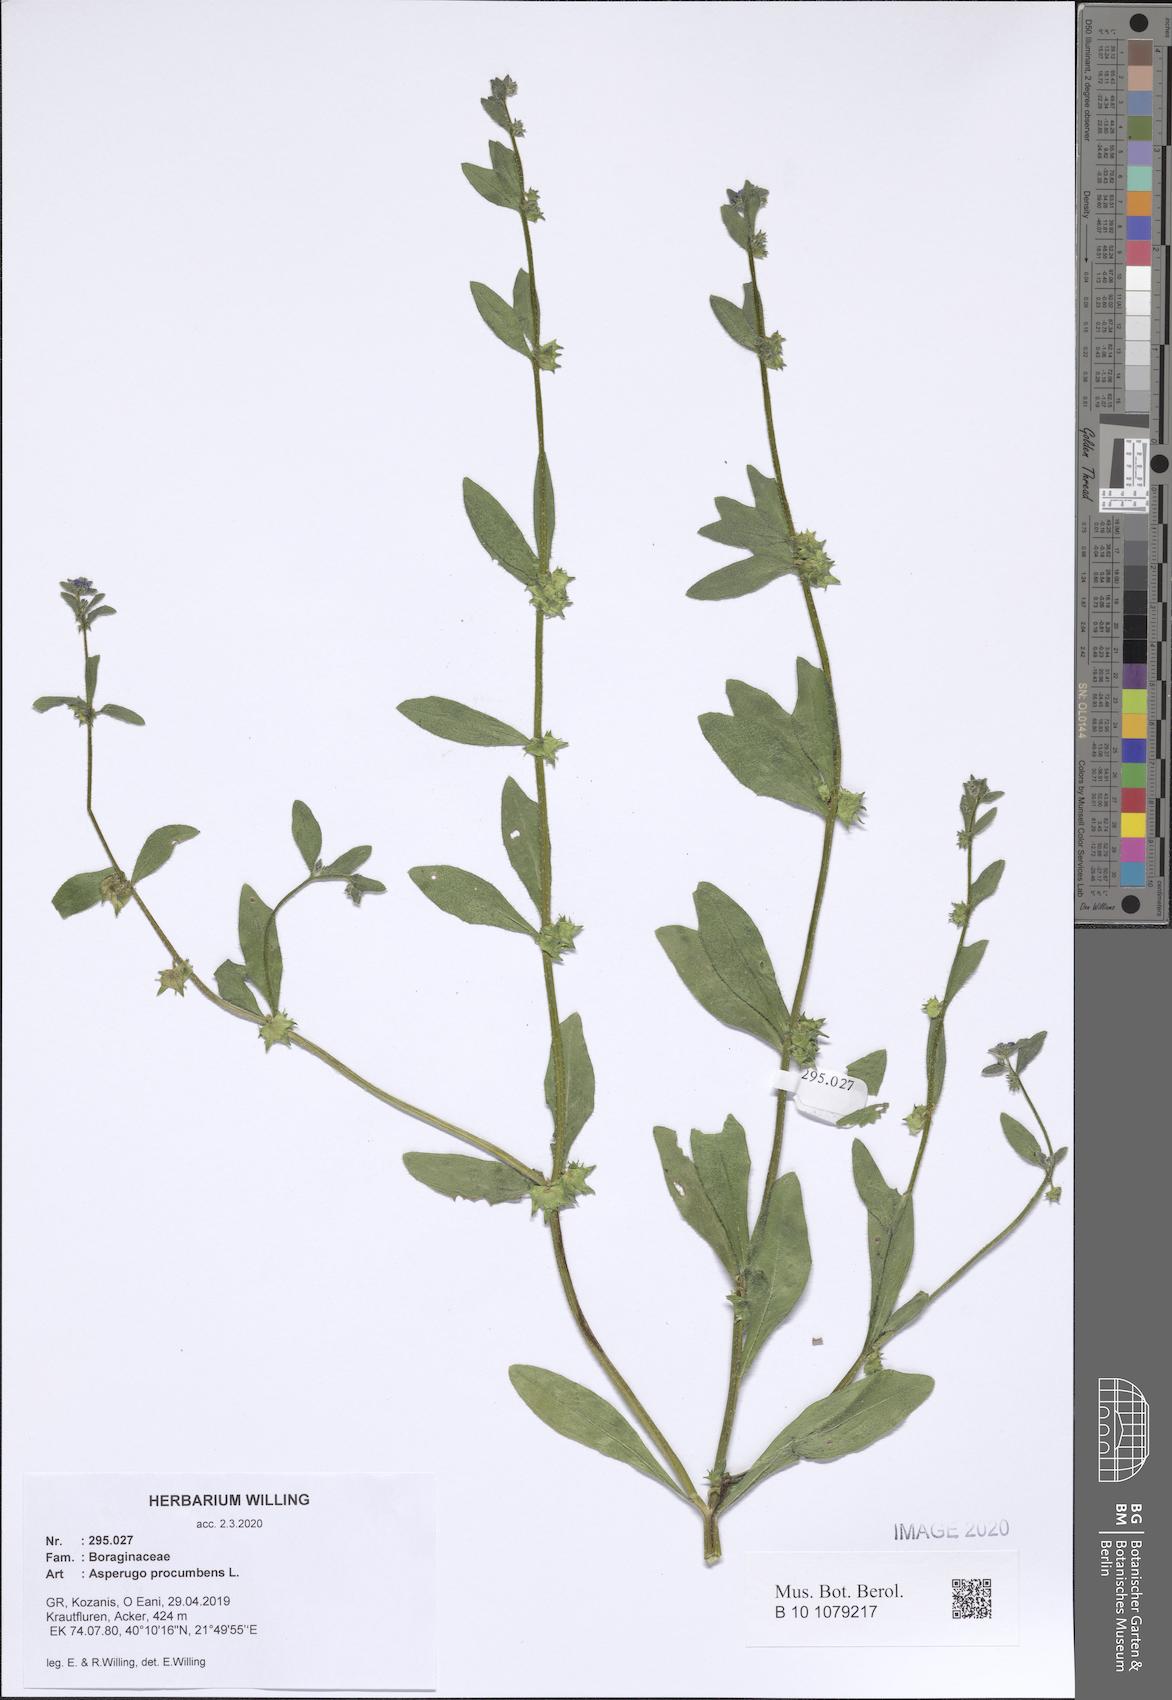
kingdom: Plantae
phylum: Tracheophyta
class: Magnoliopsida
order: Boraginales
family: Boraginaceae
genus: Asperugo
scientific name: Asperugo procumbens
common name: Madwort
